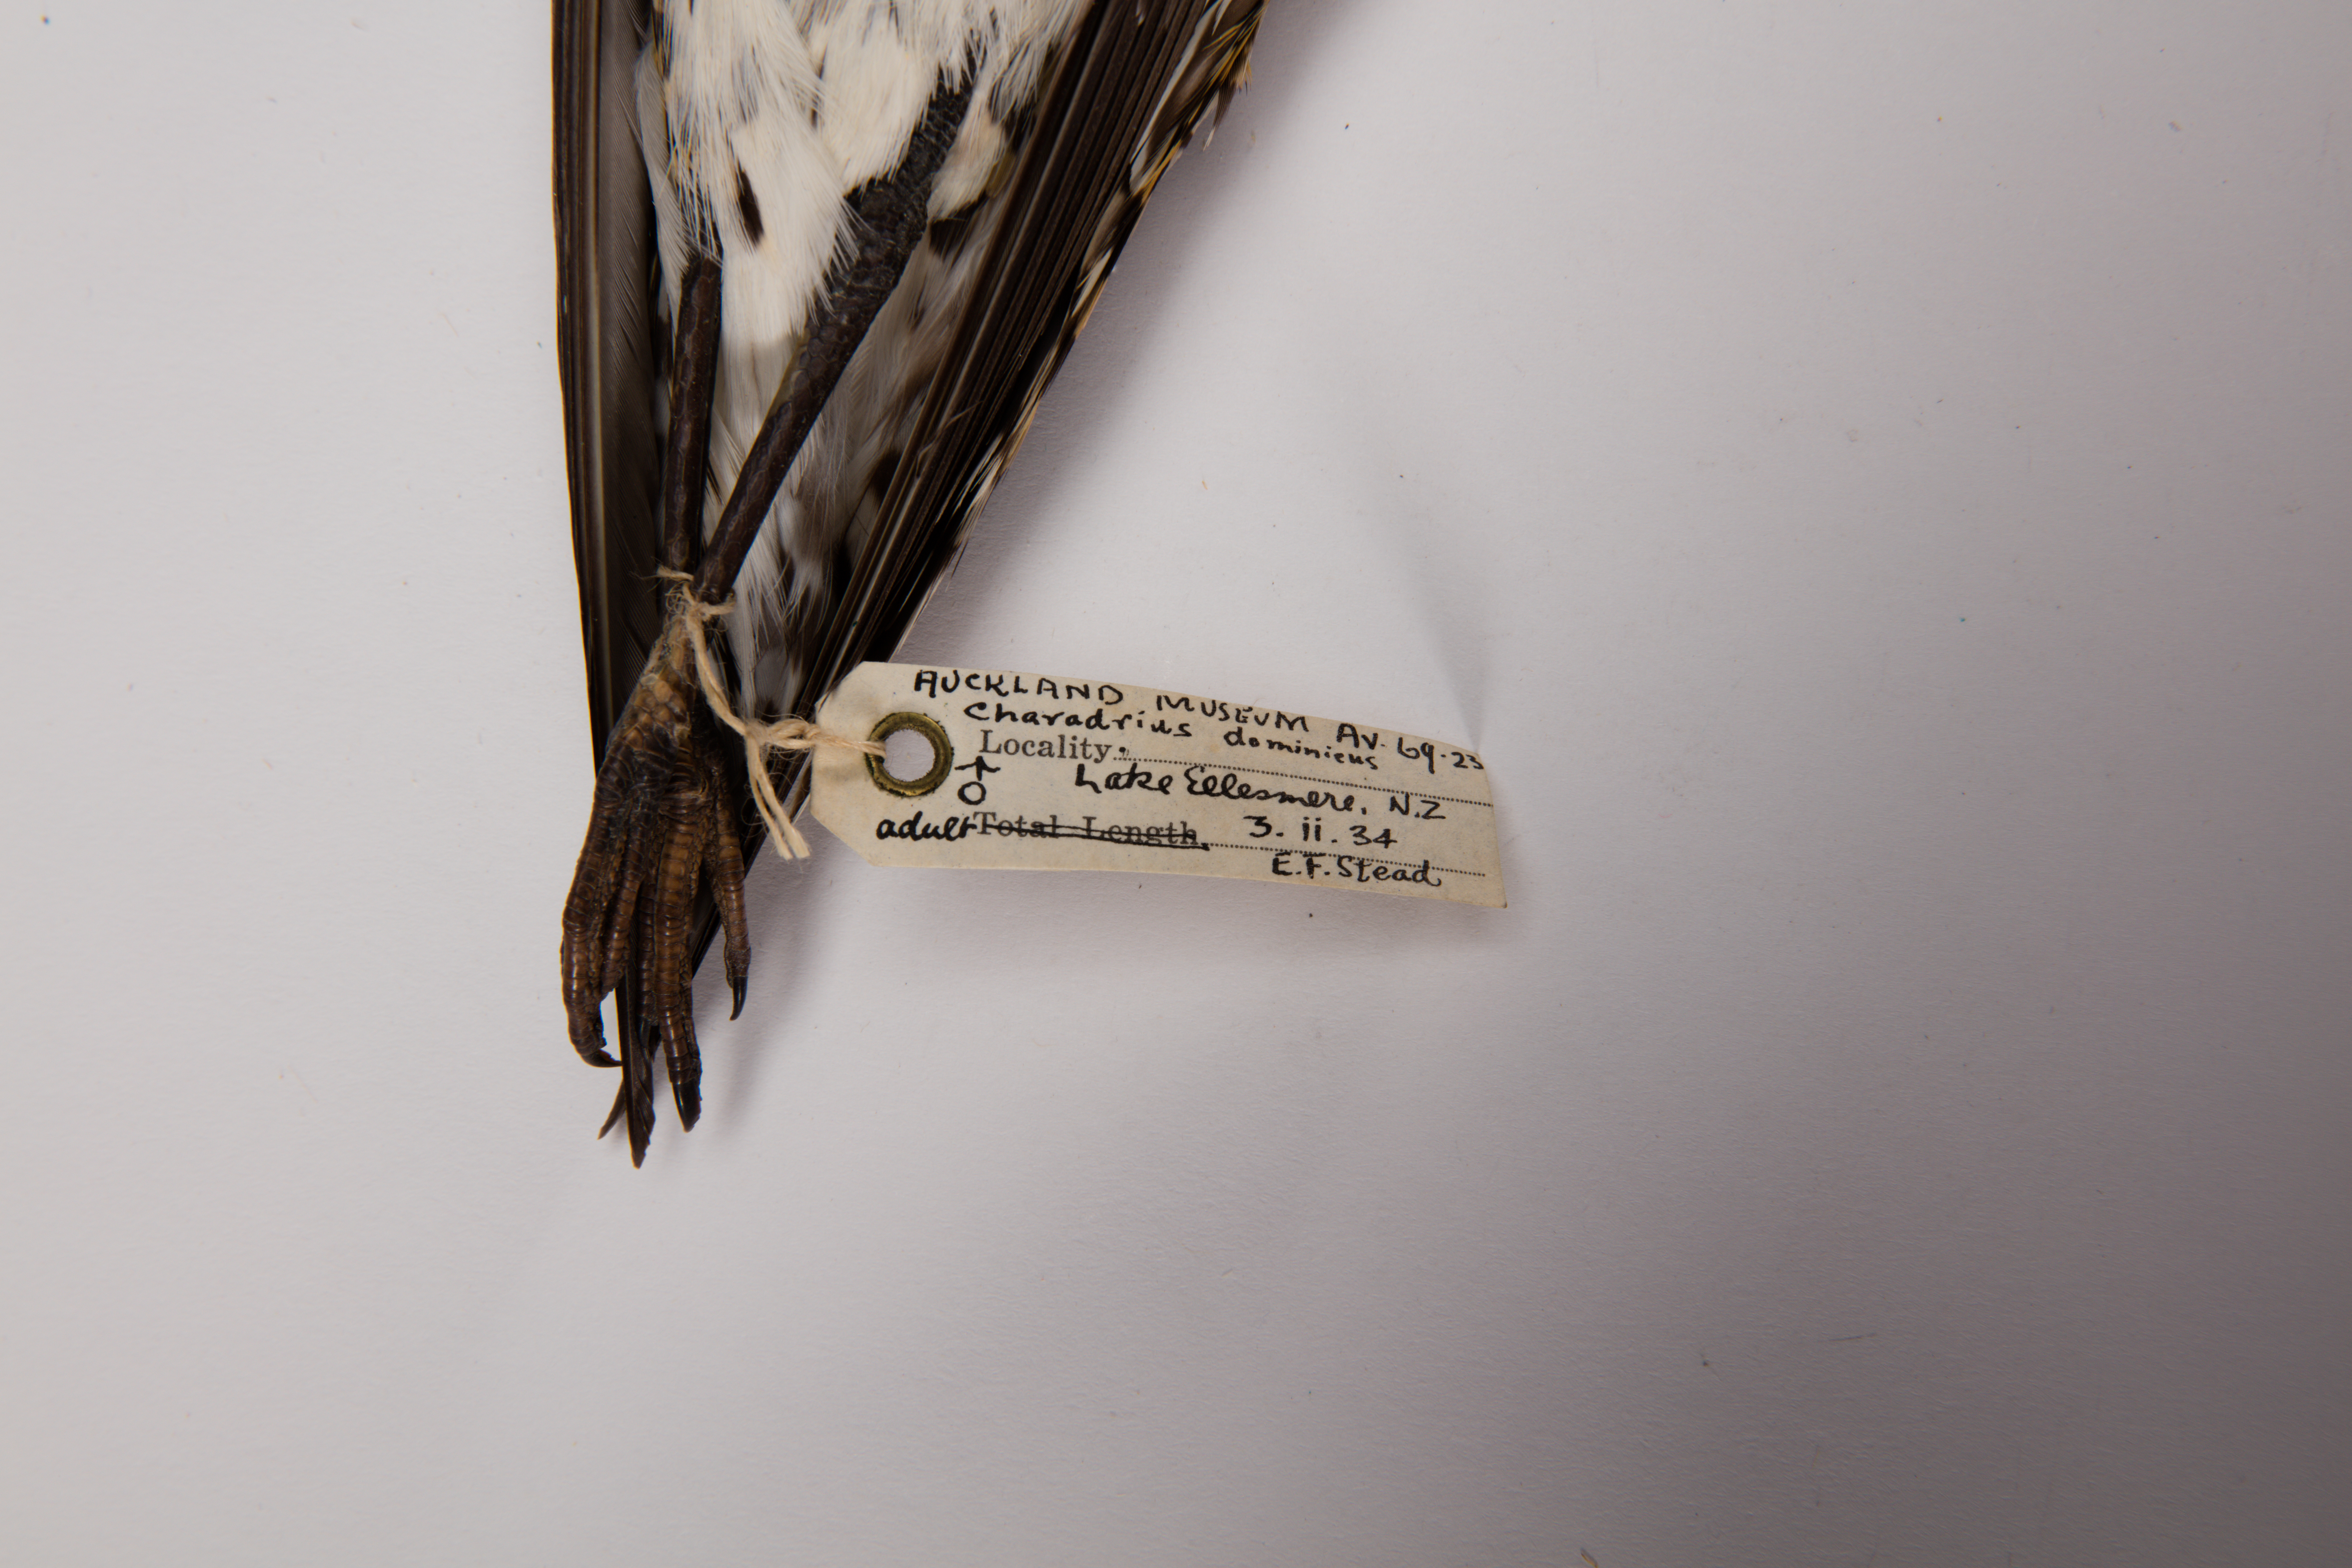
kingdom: Animalia
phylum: Chordata
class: Aves
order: Charadriiformes
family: Charadriidae
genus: Pluvialis
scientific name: Pluvialis fulva
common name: Pacific golden plover
